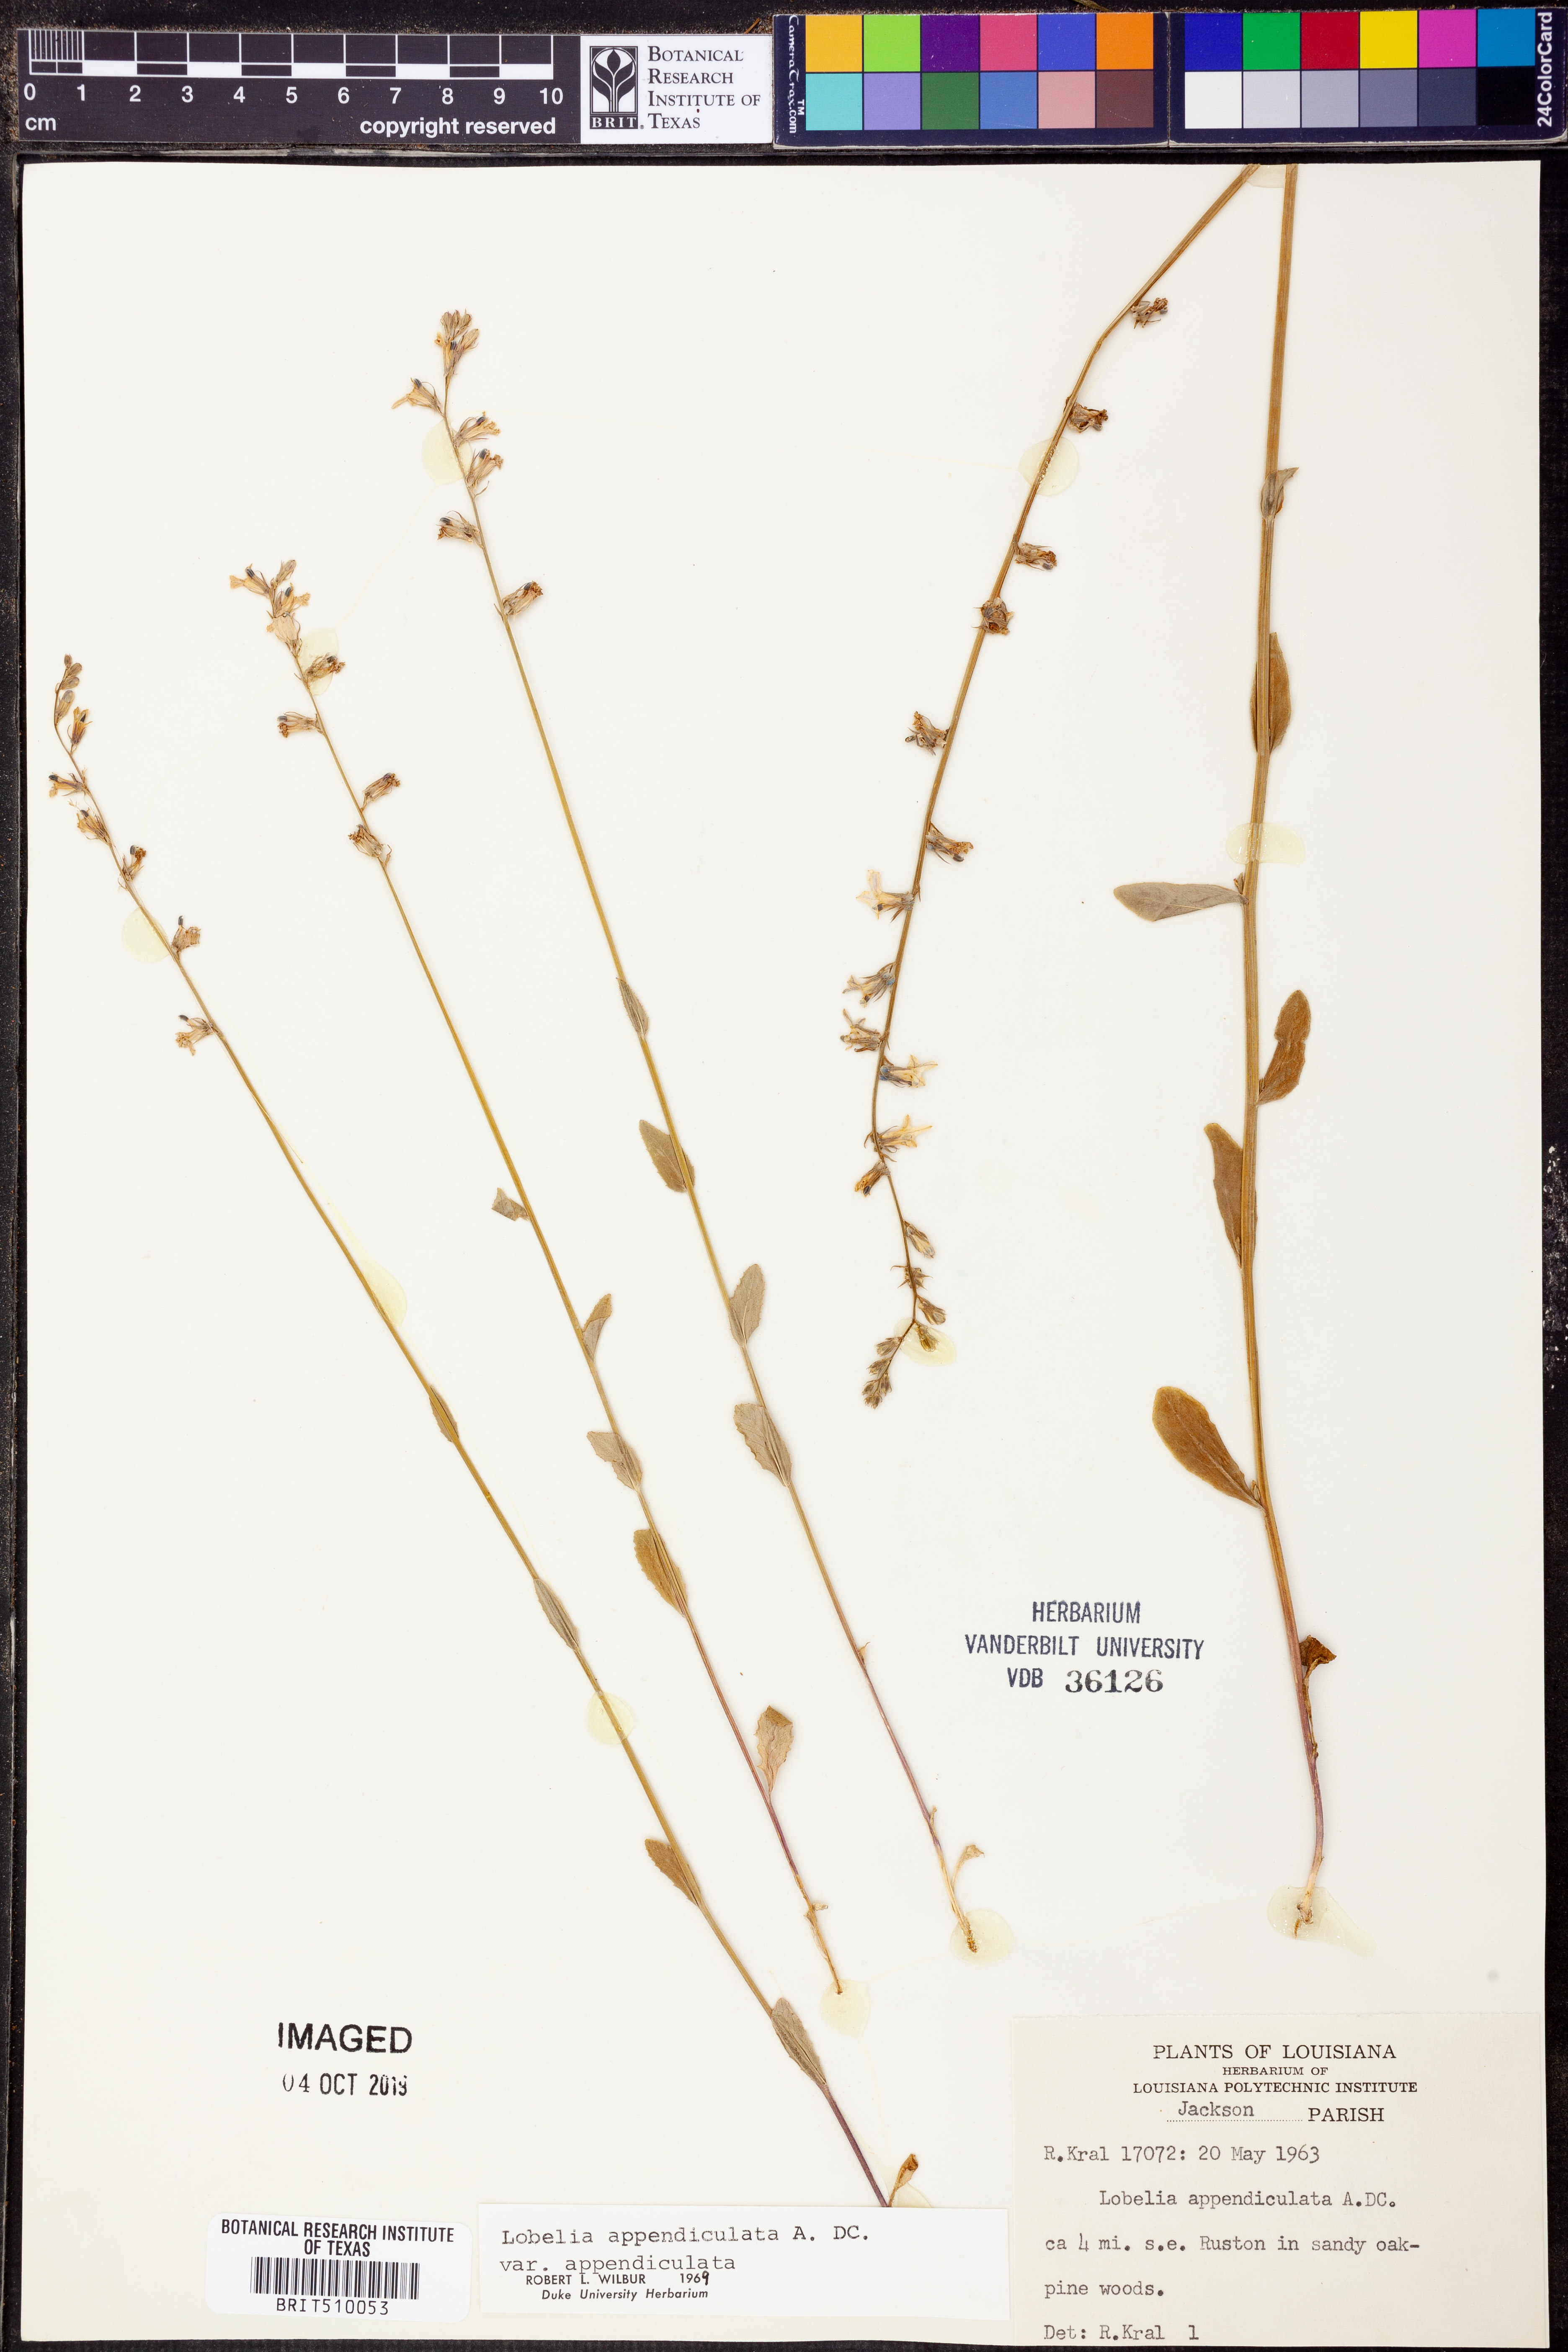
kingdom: Plantae
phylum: Tracheophyta
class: Magnoliopsida
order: Asterales
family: Campanulaceae
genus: Lobelia
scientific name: Lobelia appendiculata
